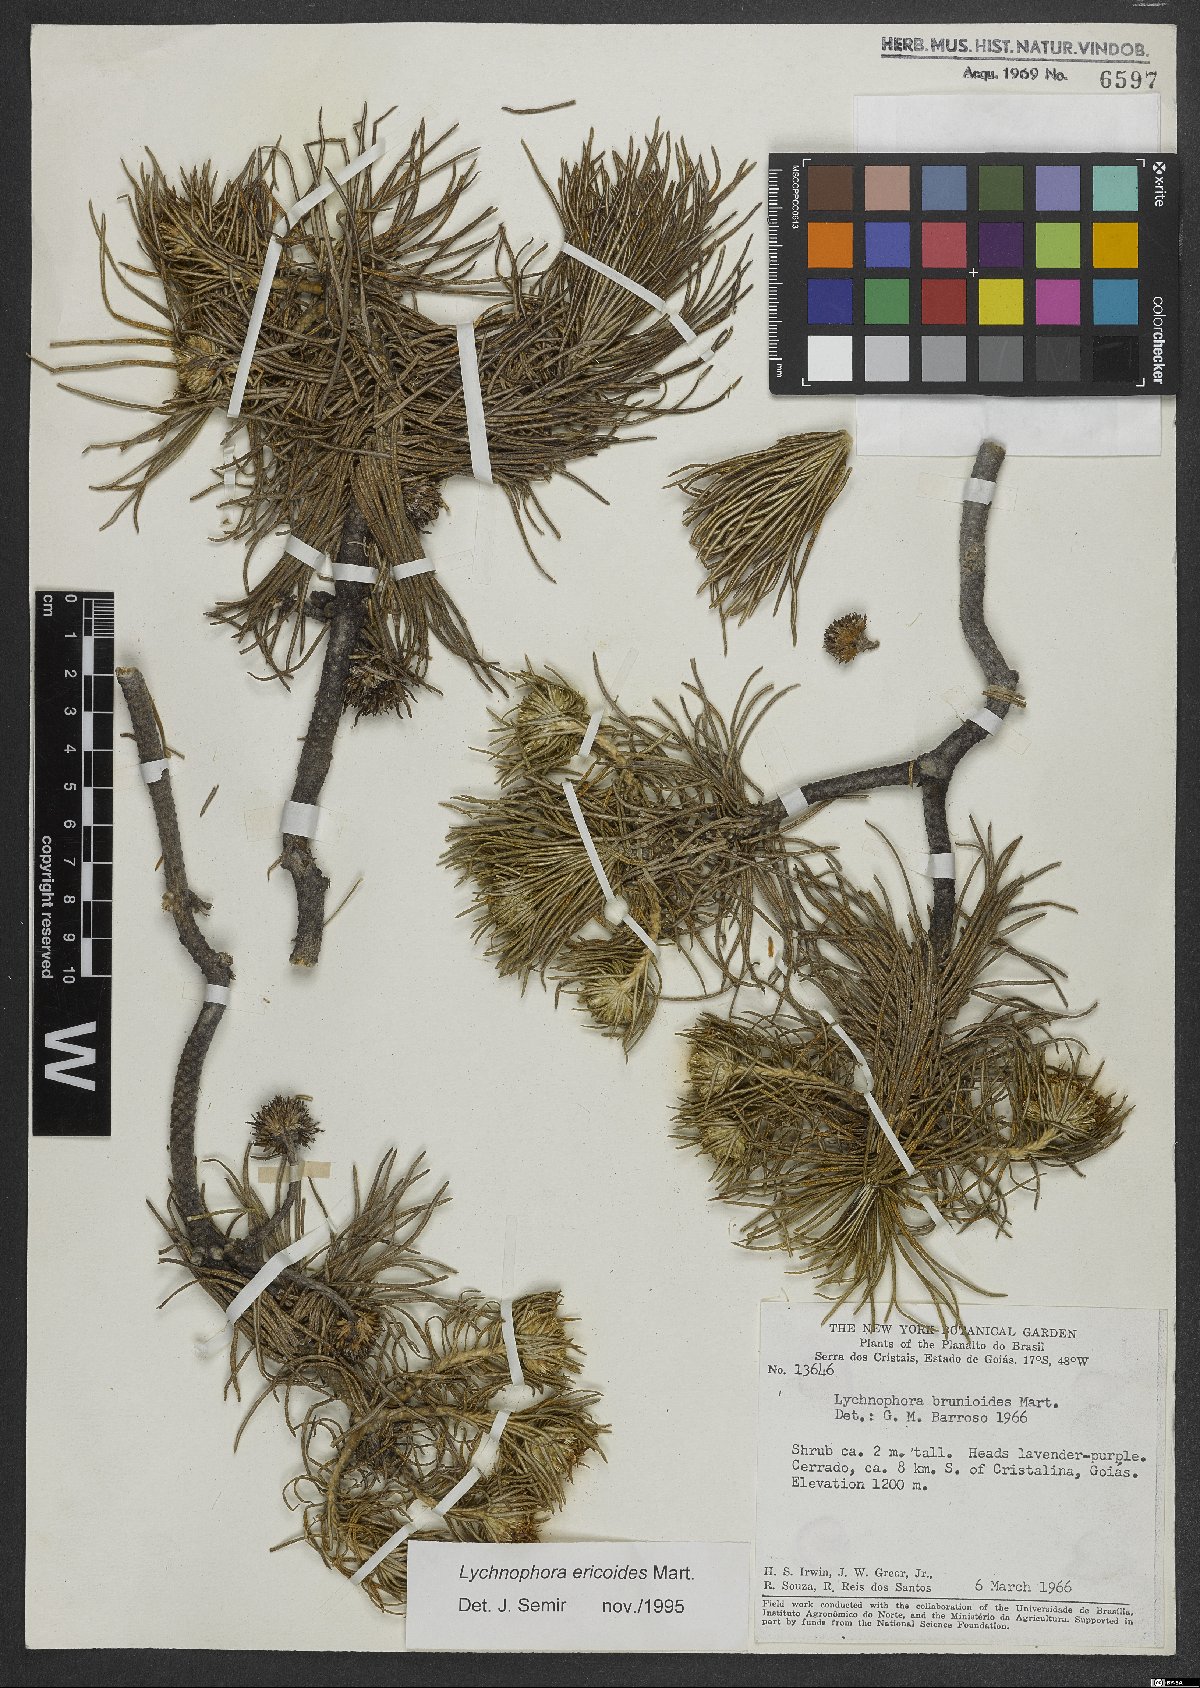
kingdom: Plantae
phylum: Tracheophyta
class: Magnoliopsida
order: Asterales
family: Asteraceae
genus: Lychnophora
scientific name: Lychnophora ericoides
